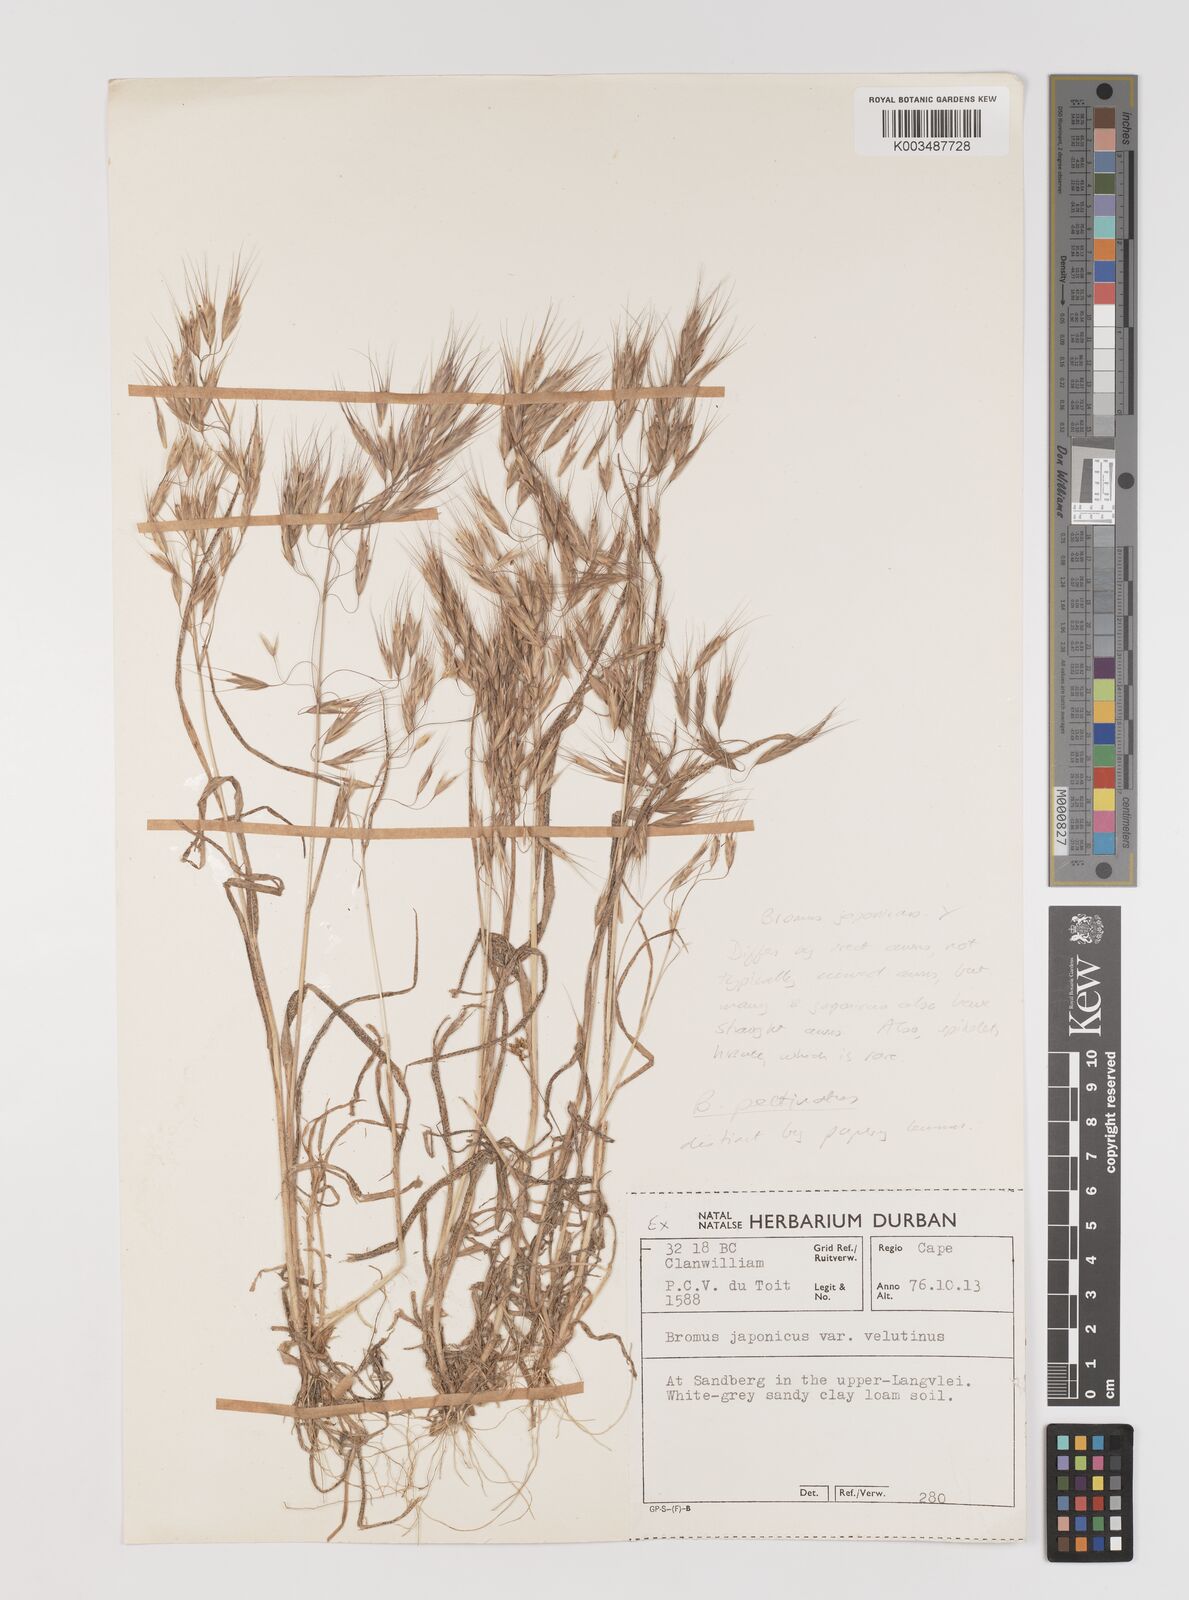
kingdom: Plantae
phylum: Tracheophyta
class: Liliopsida
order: Poales
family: Poaceae
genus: Bromus
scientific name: Bromus pectinatus
